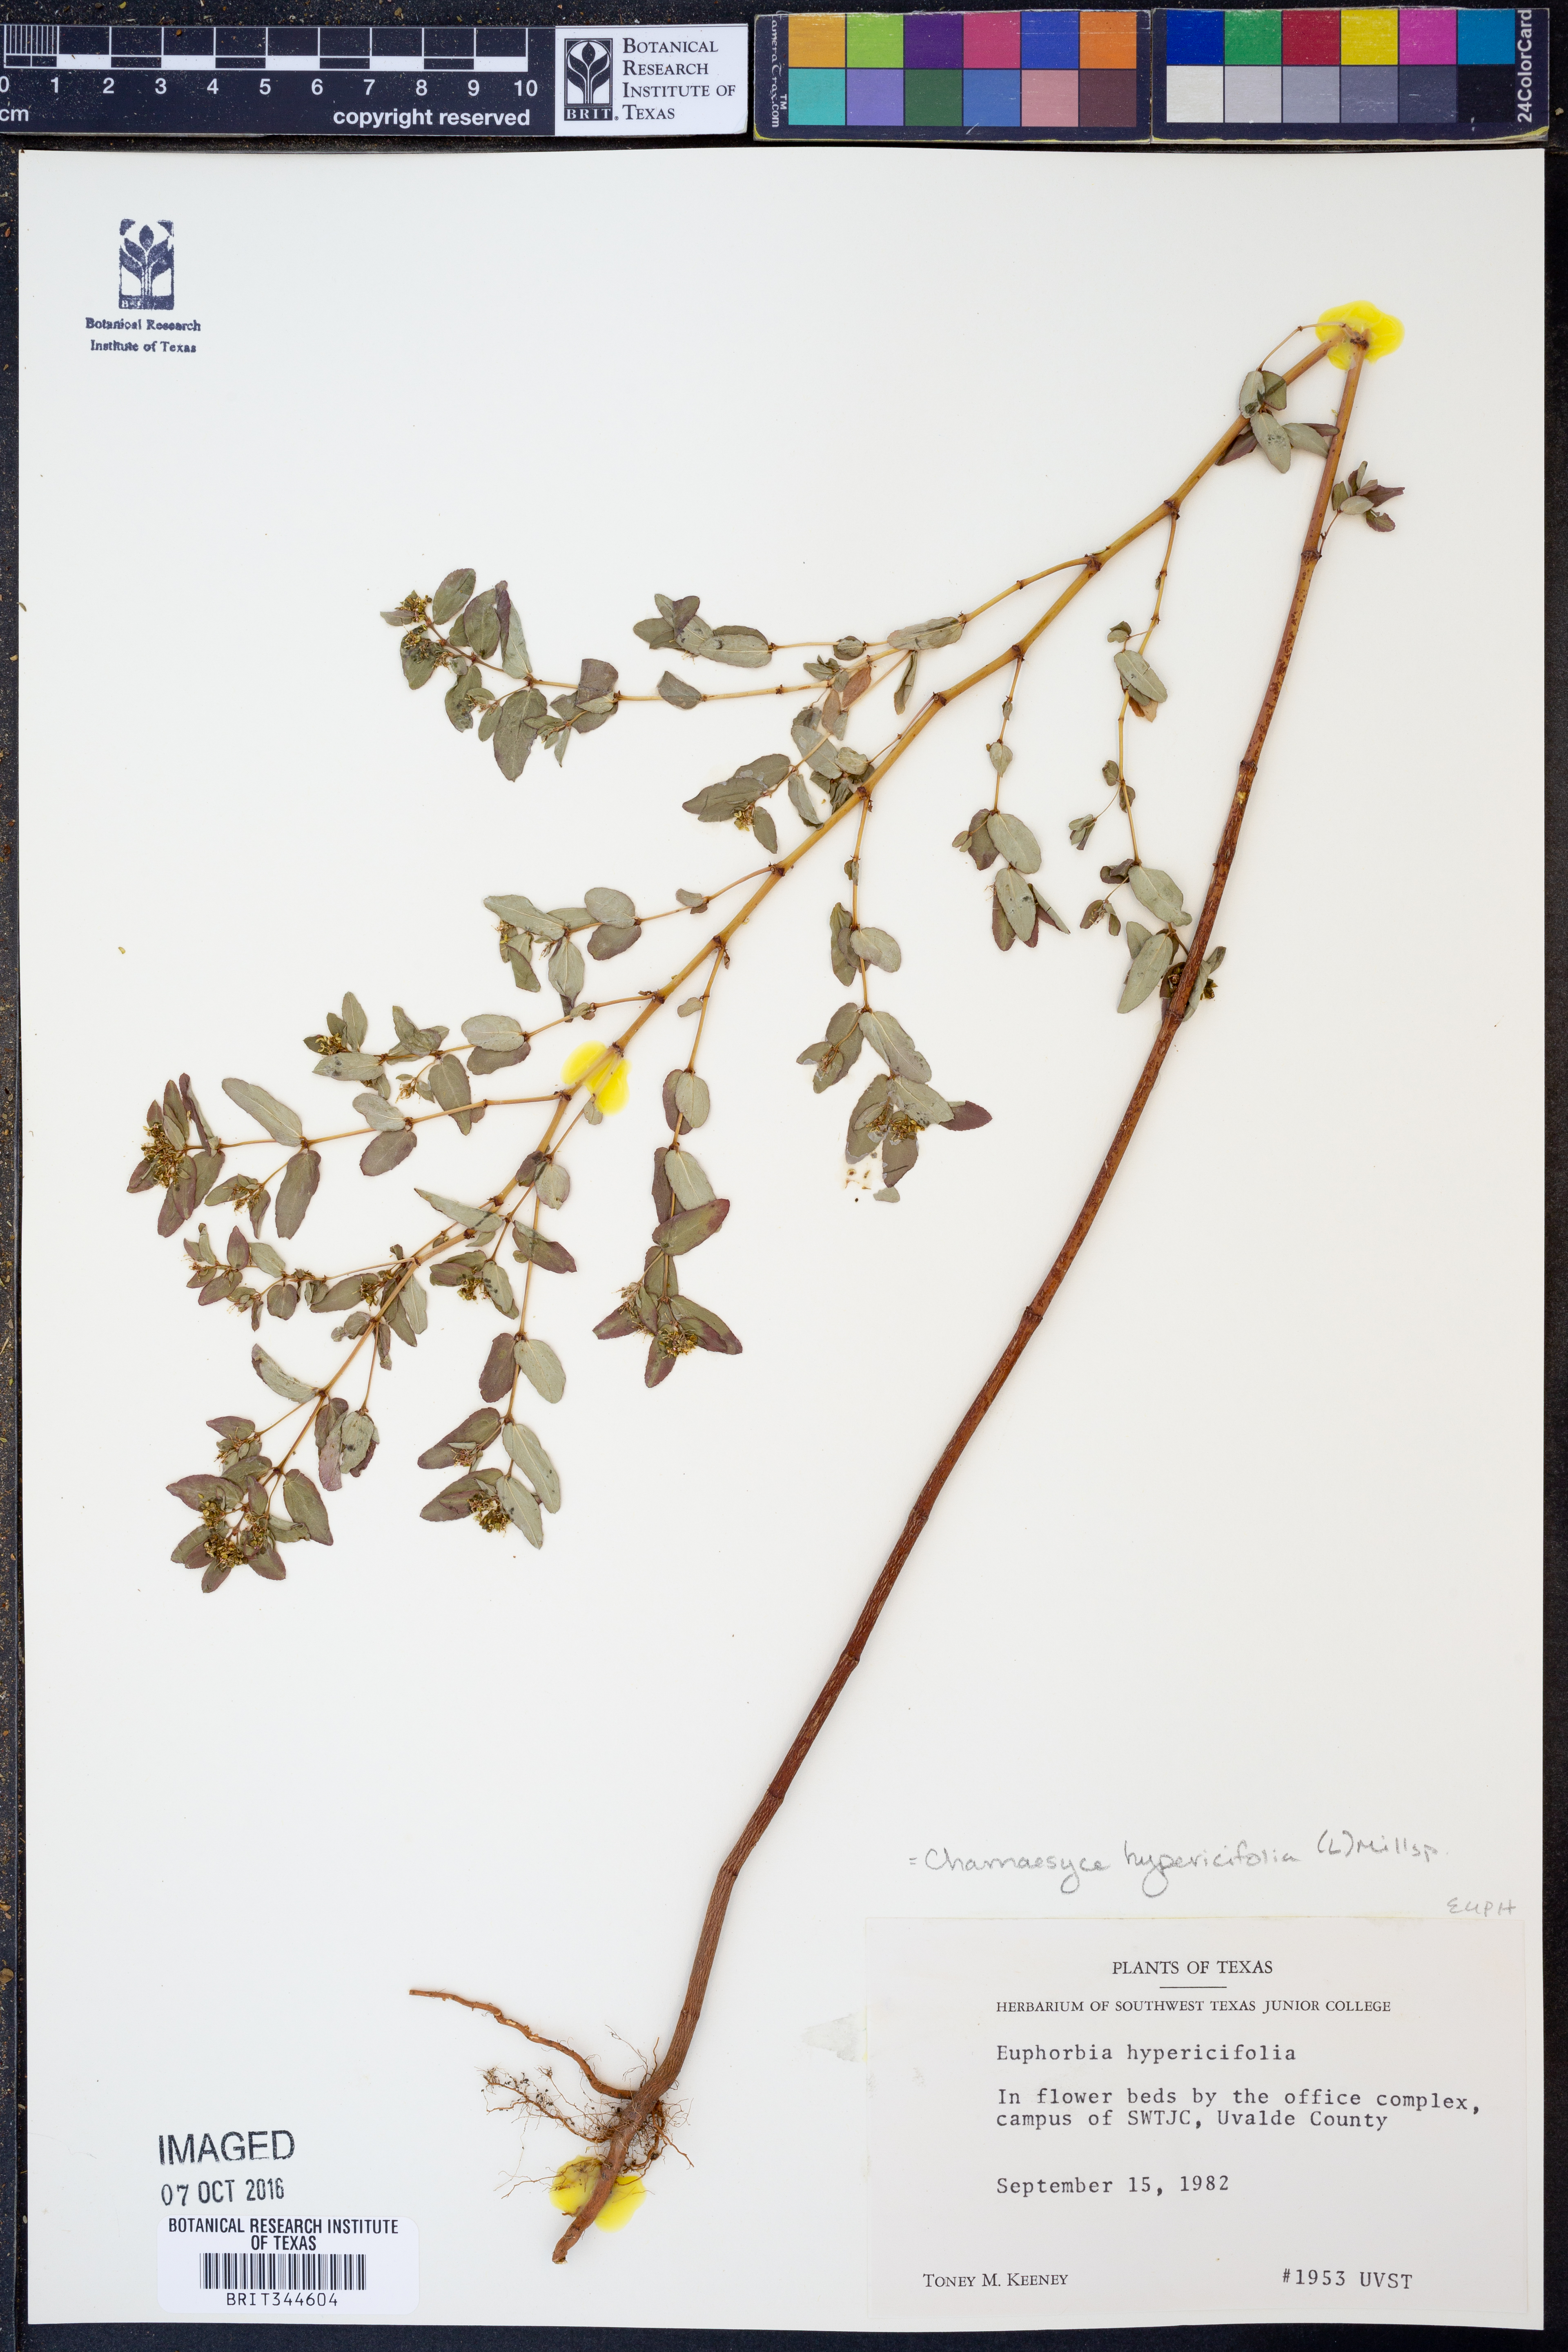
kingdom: Plantae
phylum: Tracheophyta
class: Magnoliopsida
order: Malpighiales
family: Euphorbiaceae
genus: Euphorbia
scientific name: Euphorbia hypericifolia
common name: Graceful sandmat
